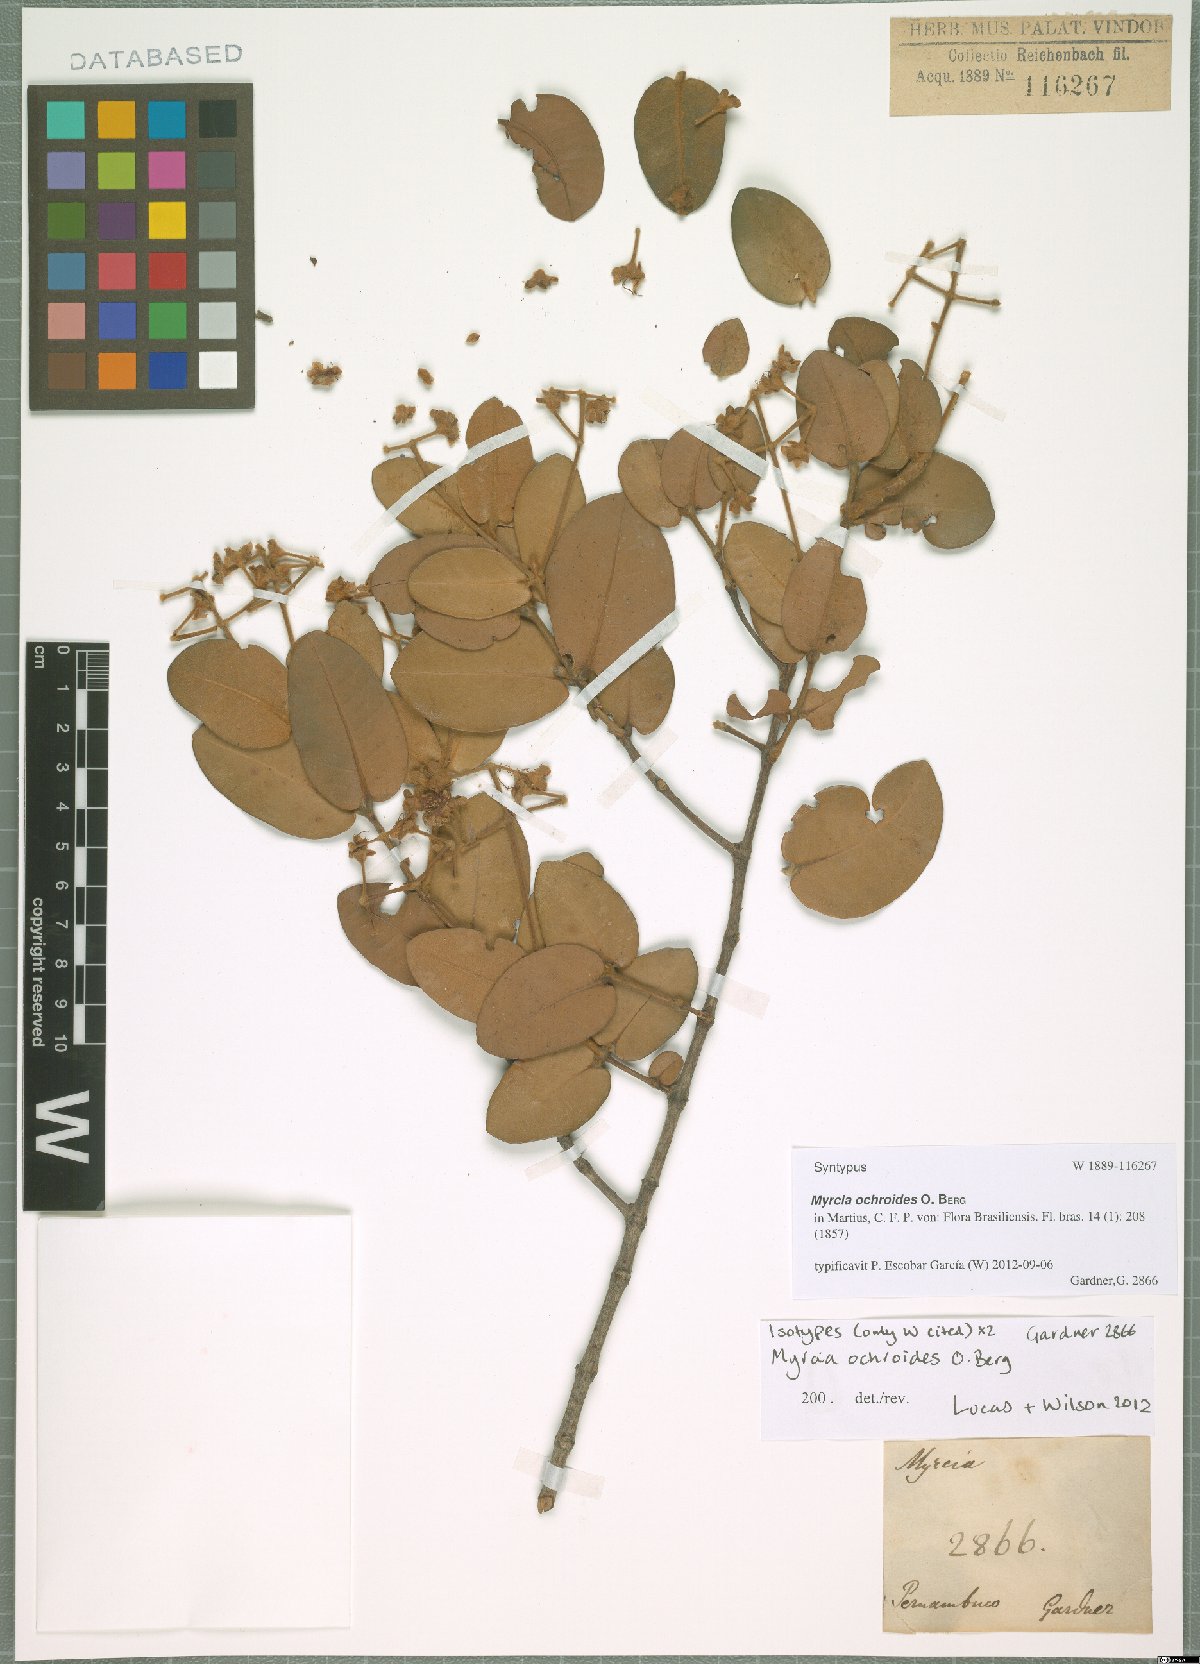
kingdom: Plantae
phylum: Tracheophyta
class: Magnoliopsida
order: Myrtales
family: Myrtaceae
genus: Myrcia
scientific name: Myrcia ochroides
